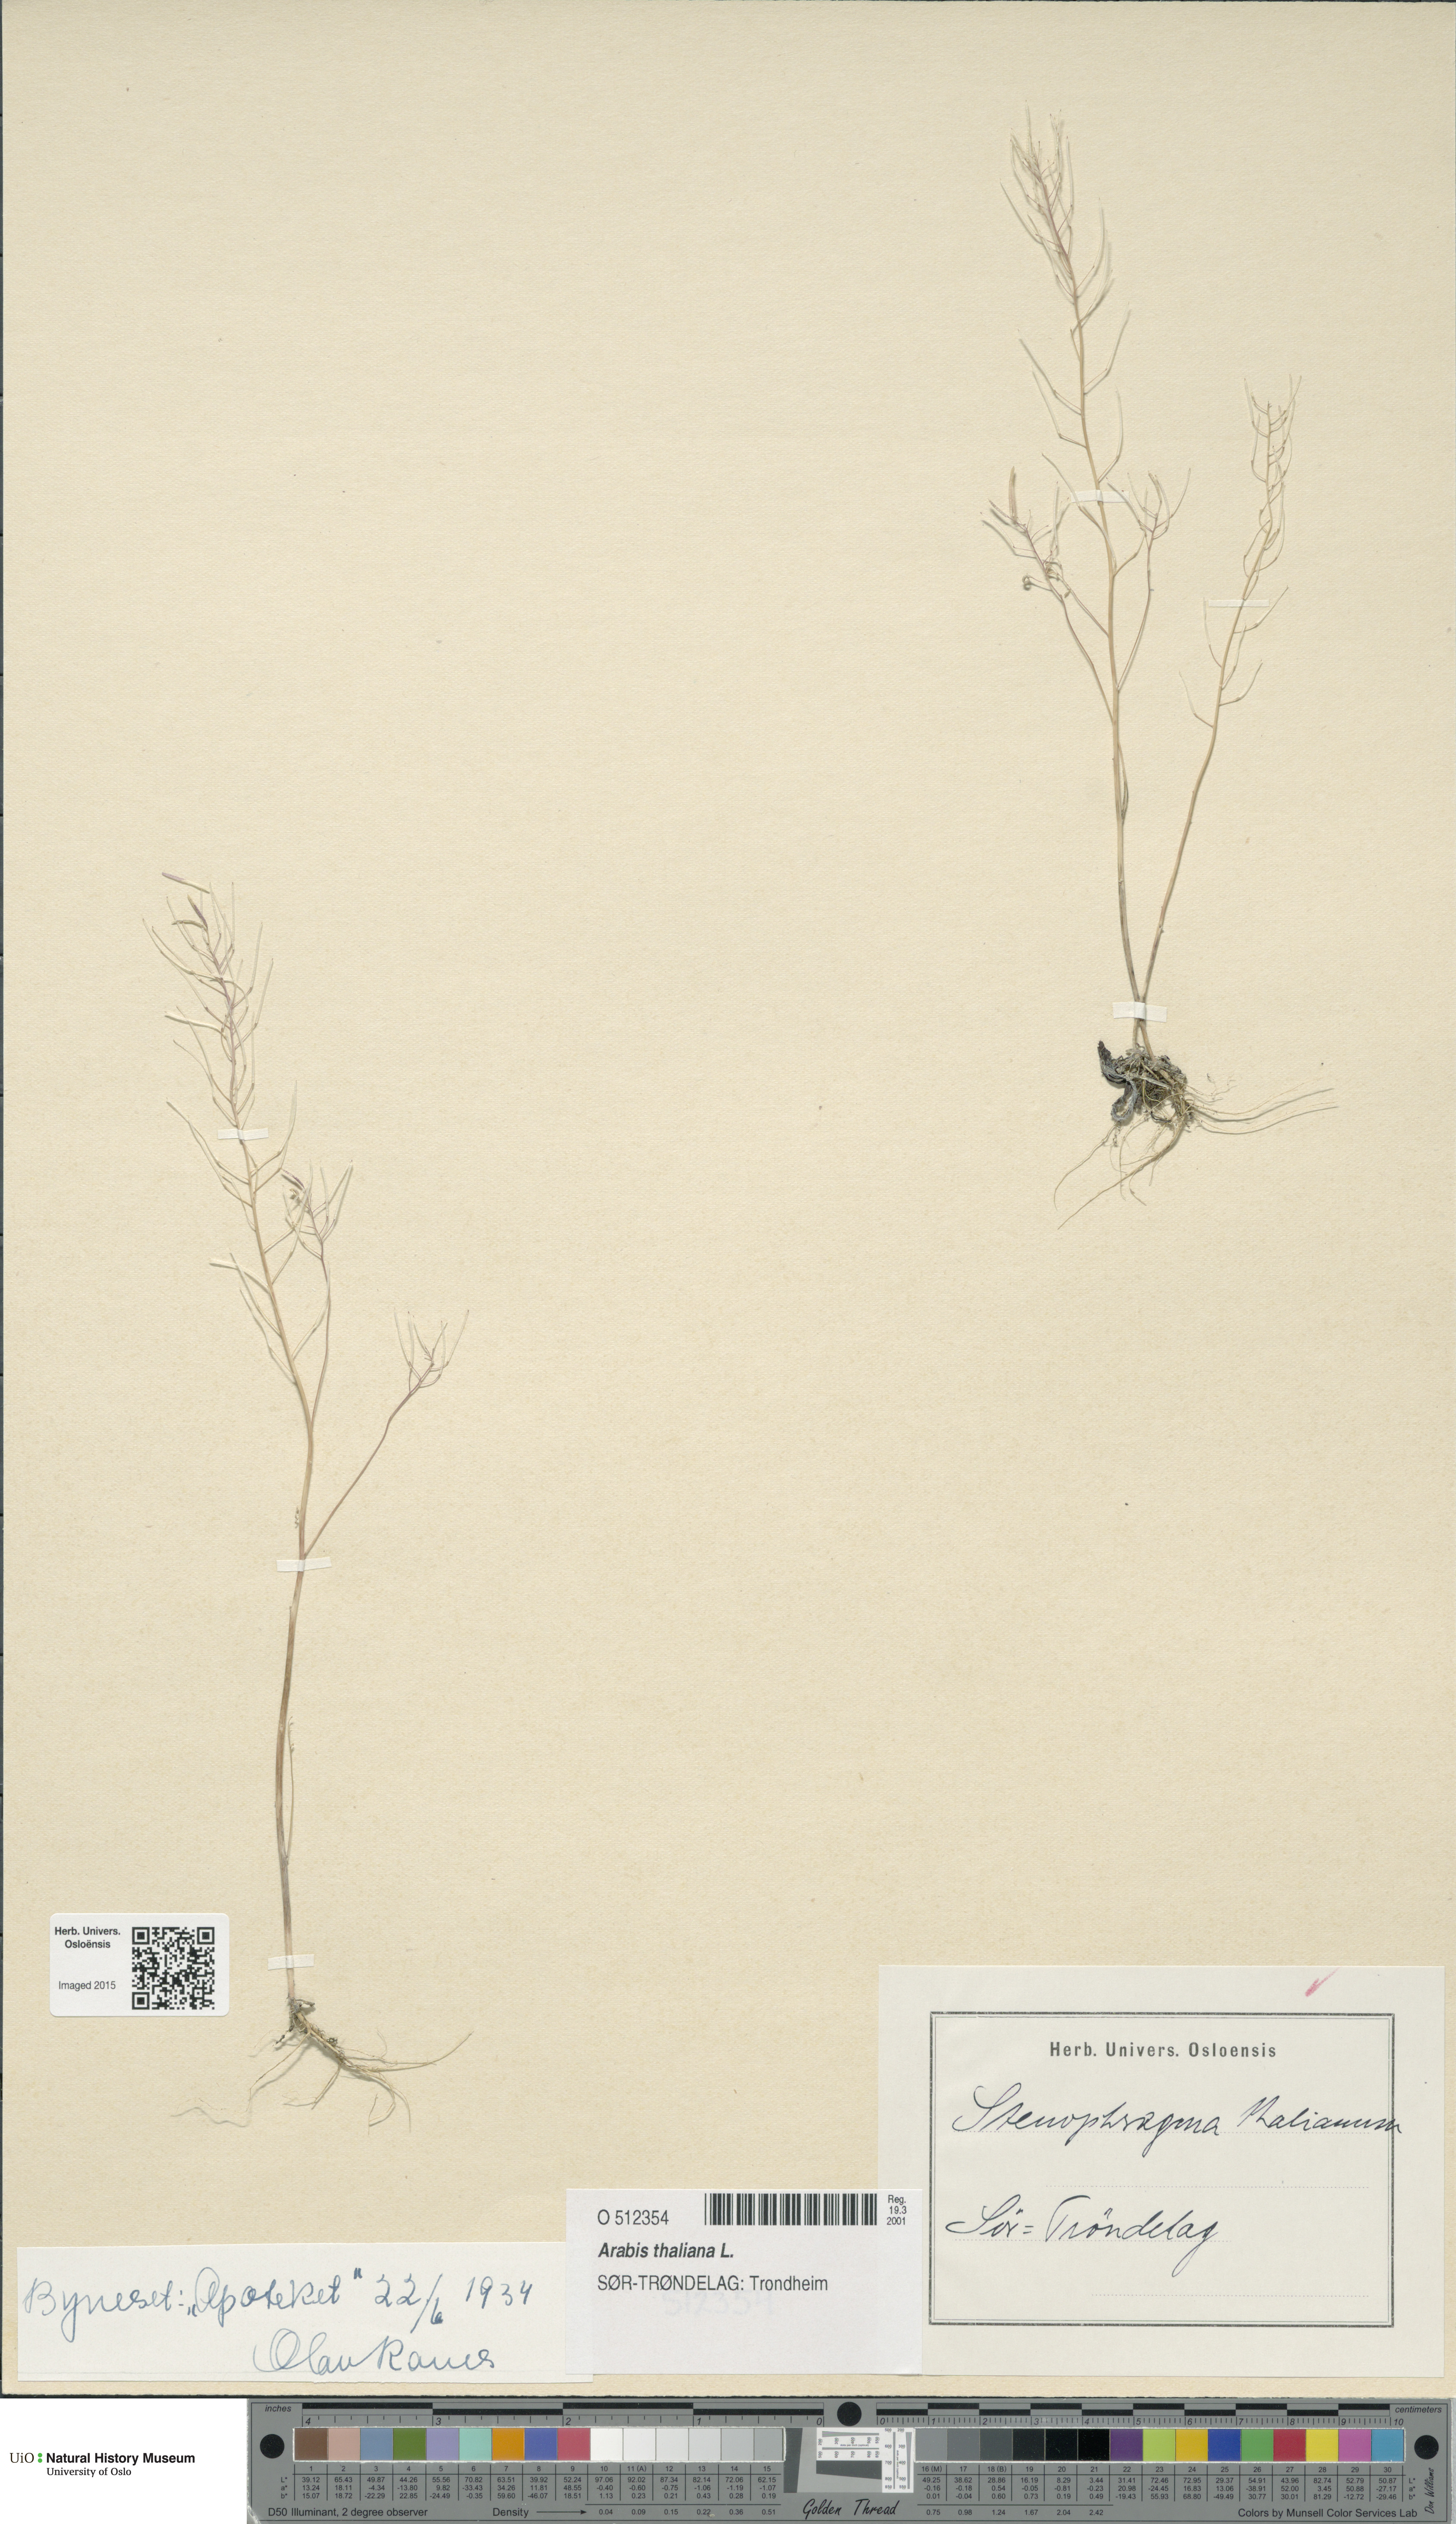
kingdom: Plantae
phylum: Tracheophyta
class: Magnoliopsida
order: Brassicales
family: Brassicaceae
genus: Arabidopsis
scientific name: Arabidopsis thaliana
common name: Thale cress
